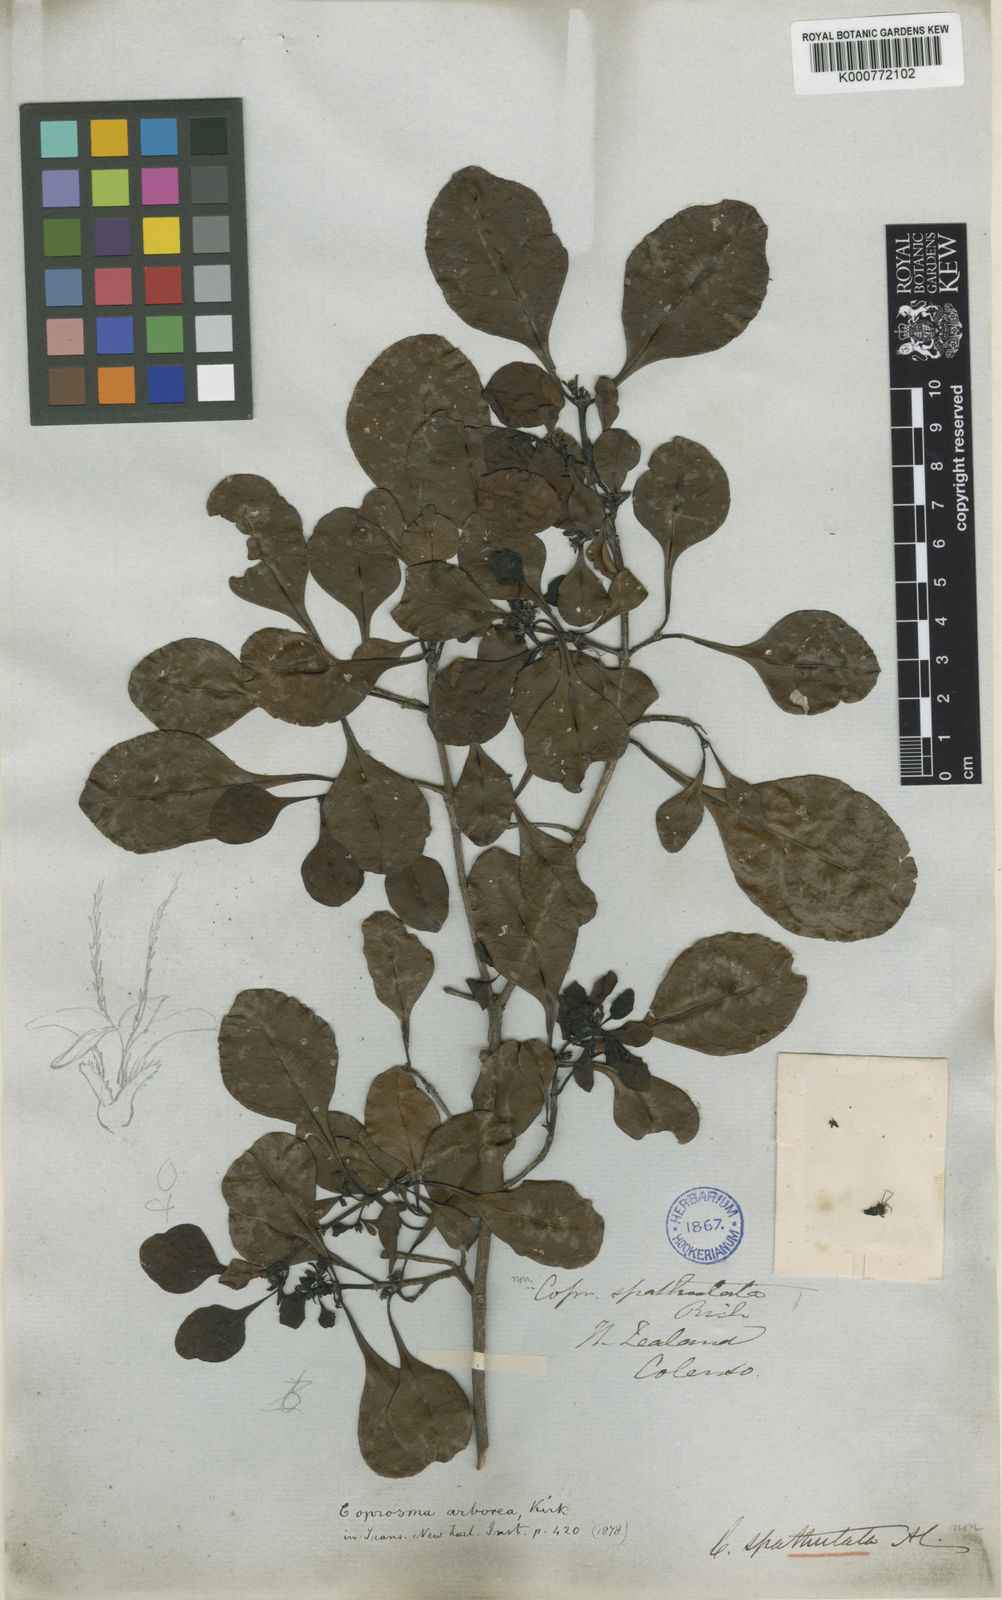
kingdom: Plantae
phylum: Tracheophyta
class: Magnoliopsida
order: Gentianales
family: Rubiaceae
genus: Coprosma
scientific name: Coprosma arborea
